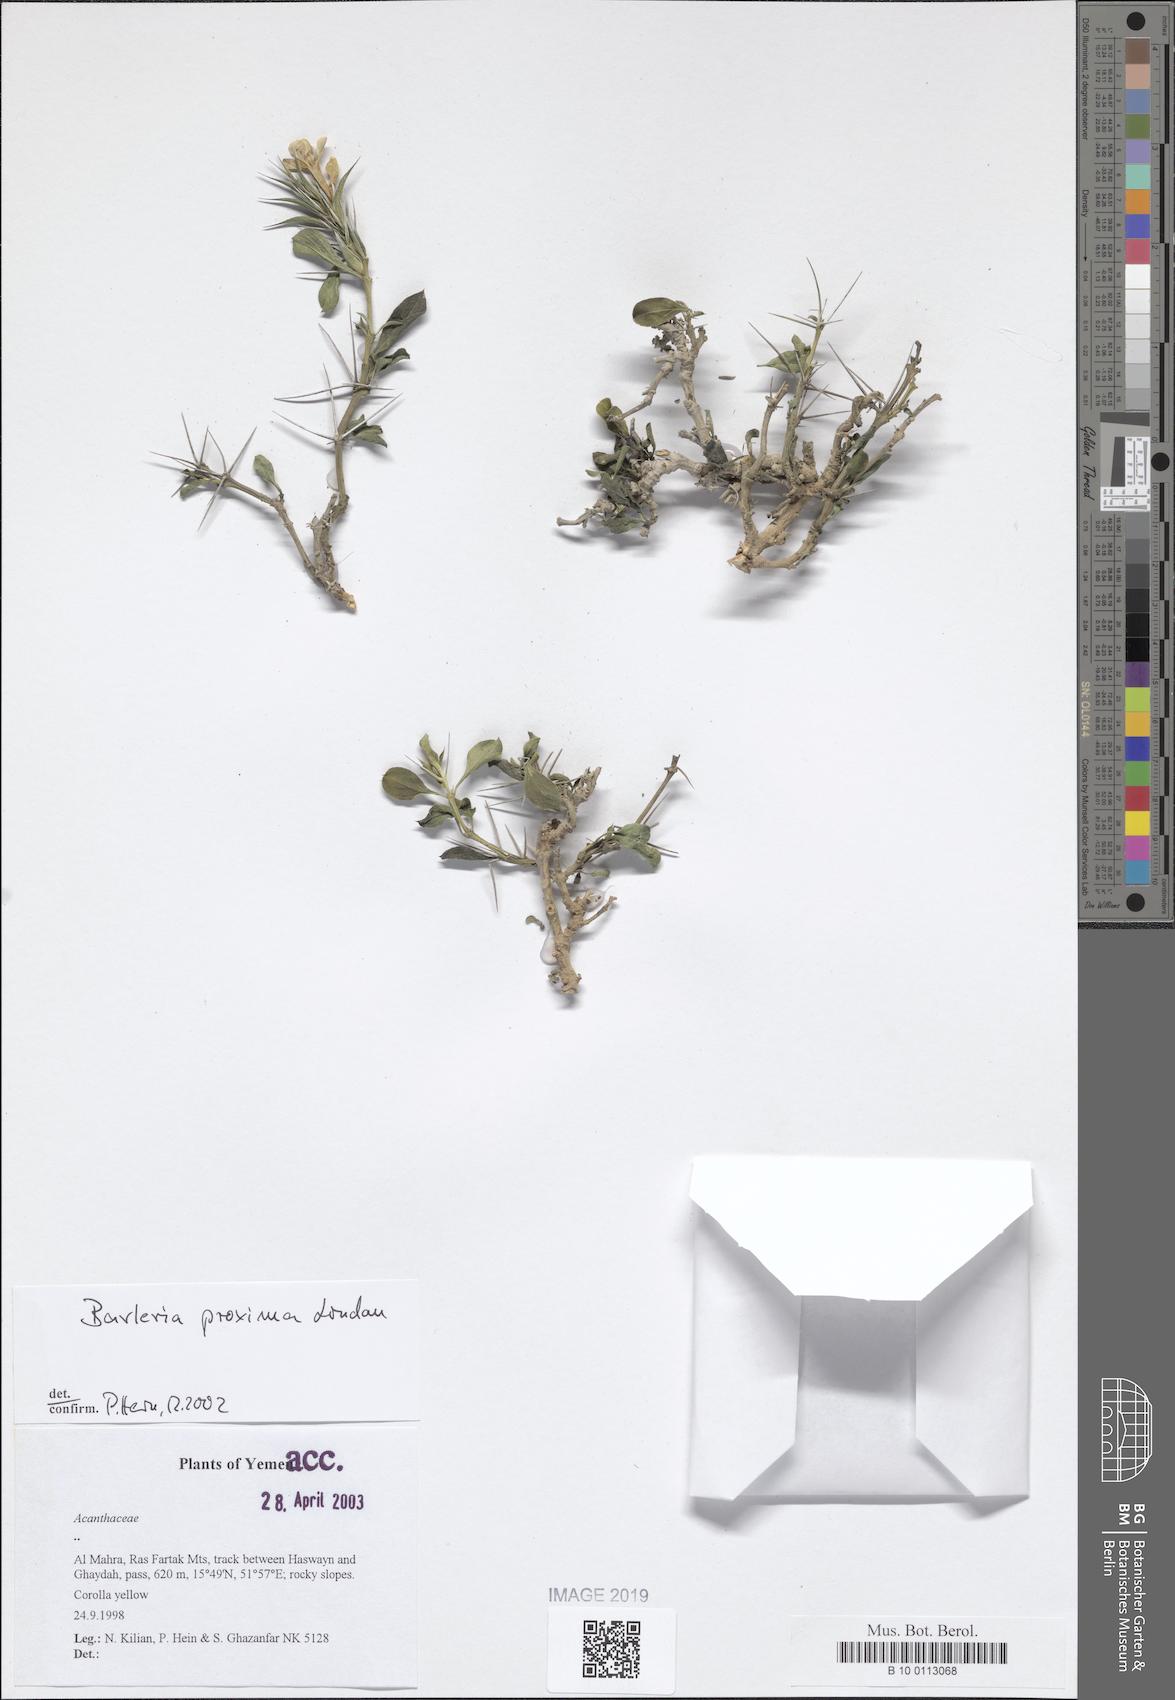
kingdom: Plantae
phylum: Tracheophyta
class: Magnoliopsida
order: Lamiales
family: Acanthaceae
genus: Barleria
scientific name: Barleria proxima
